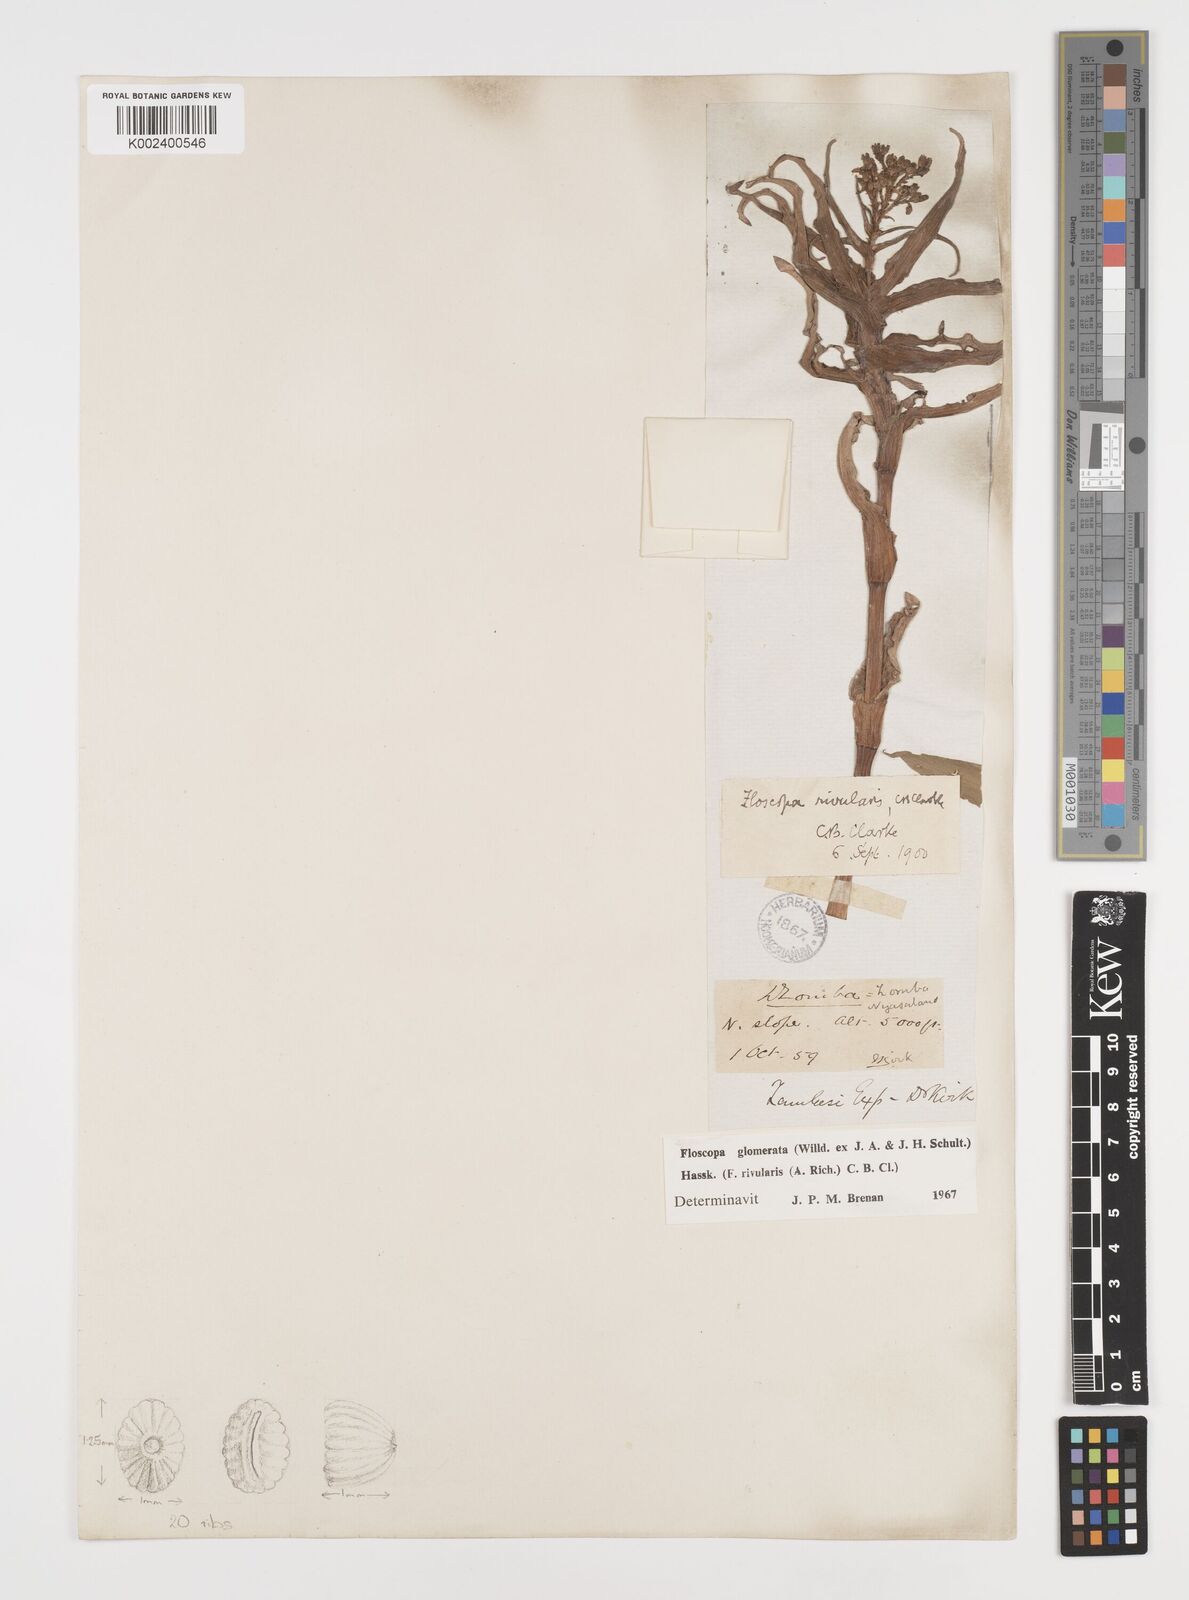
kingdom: Plantae
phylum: Tracheophyta
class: Liliopsida
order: Commelinales
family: Commelinaceae
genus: Floscopa
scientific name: Floscopa glomerata
